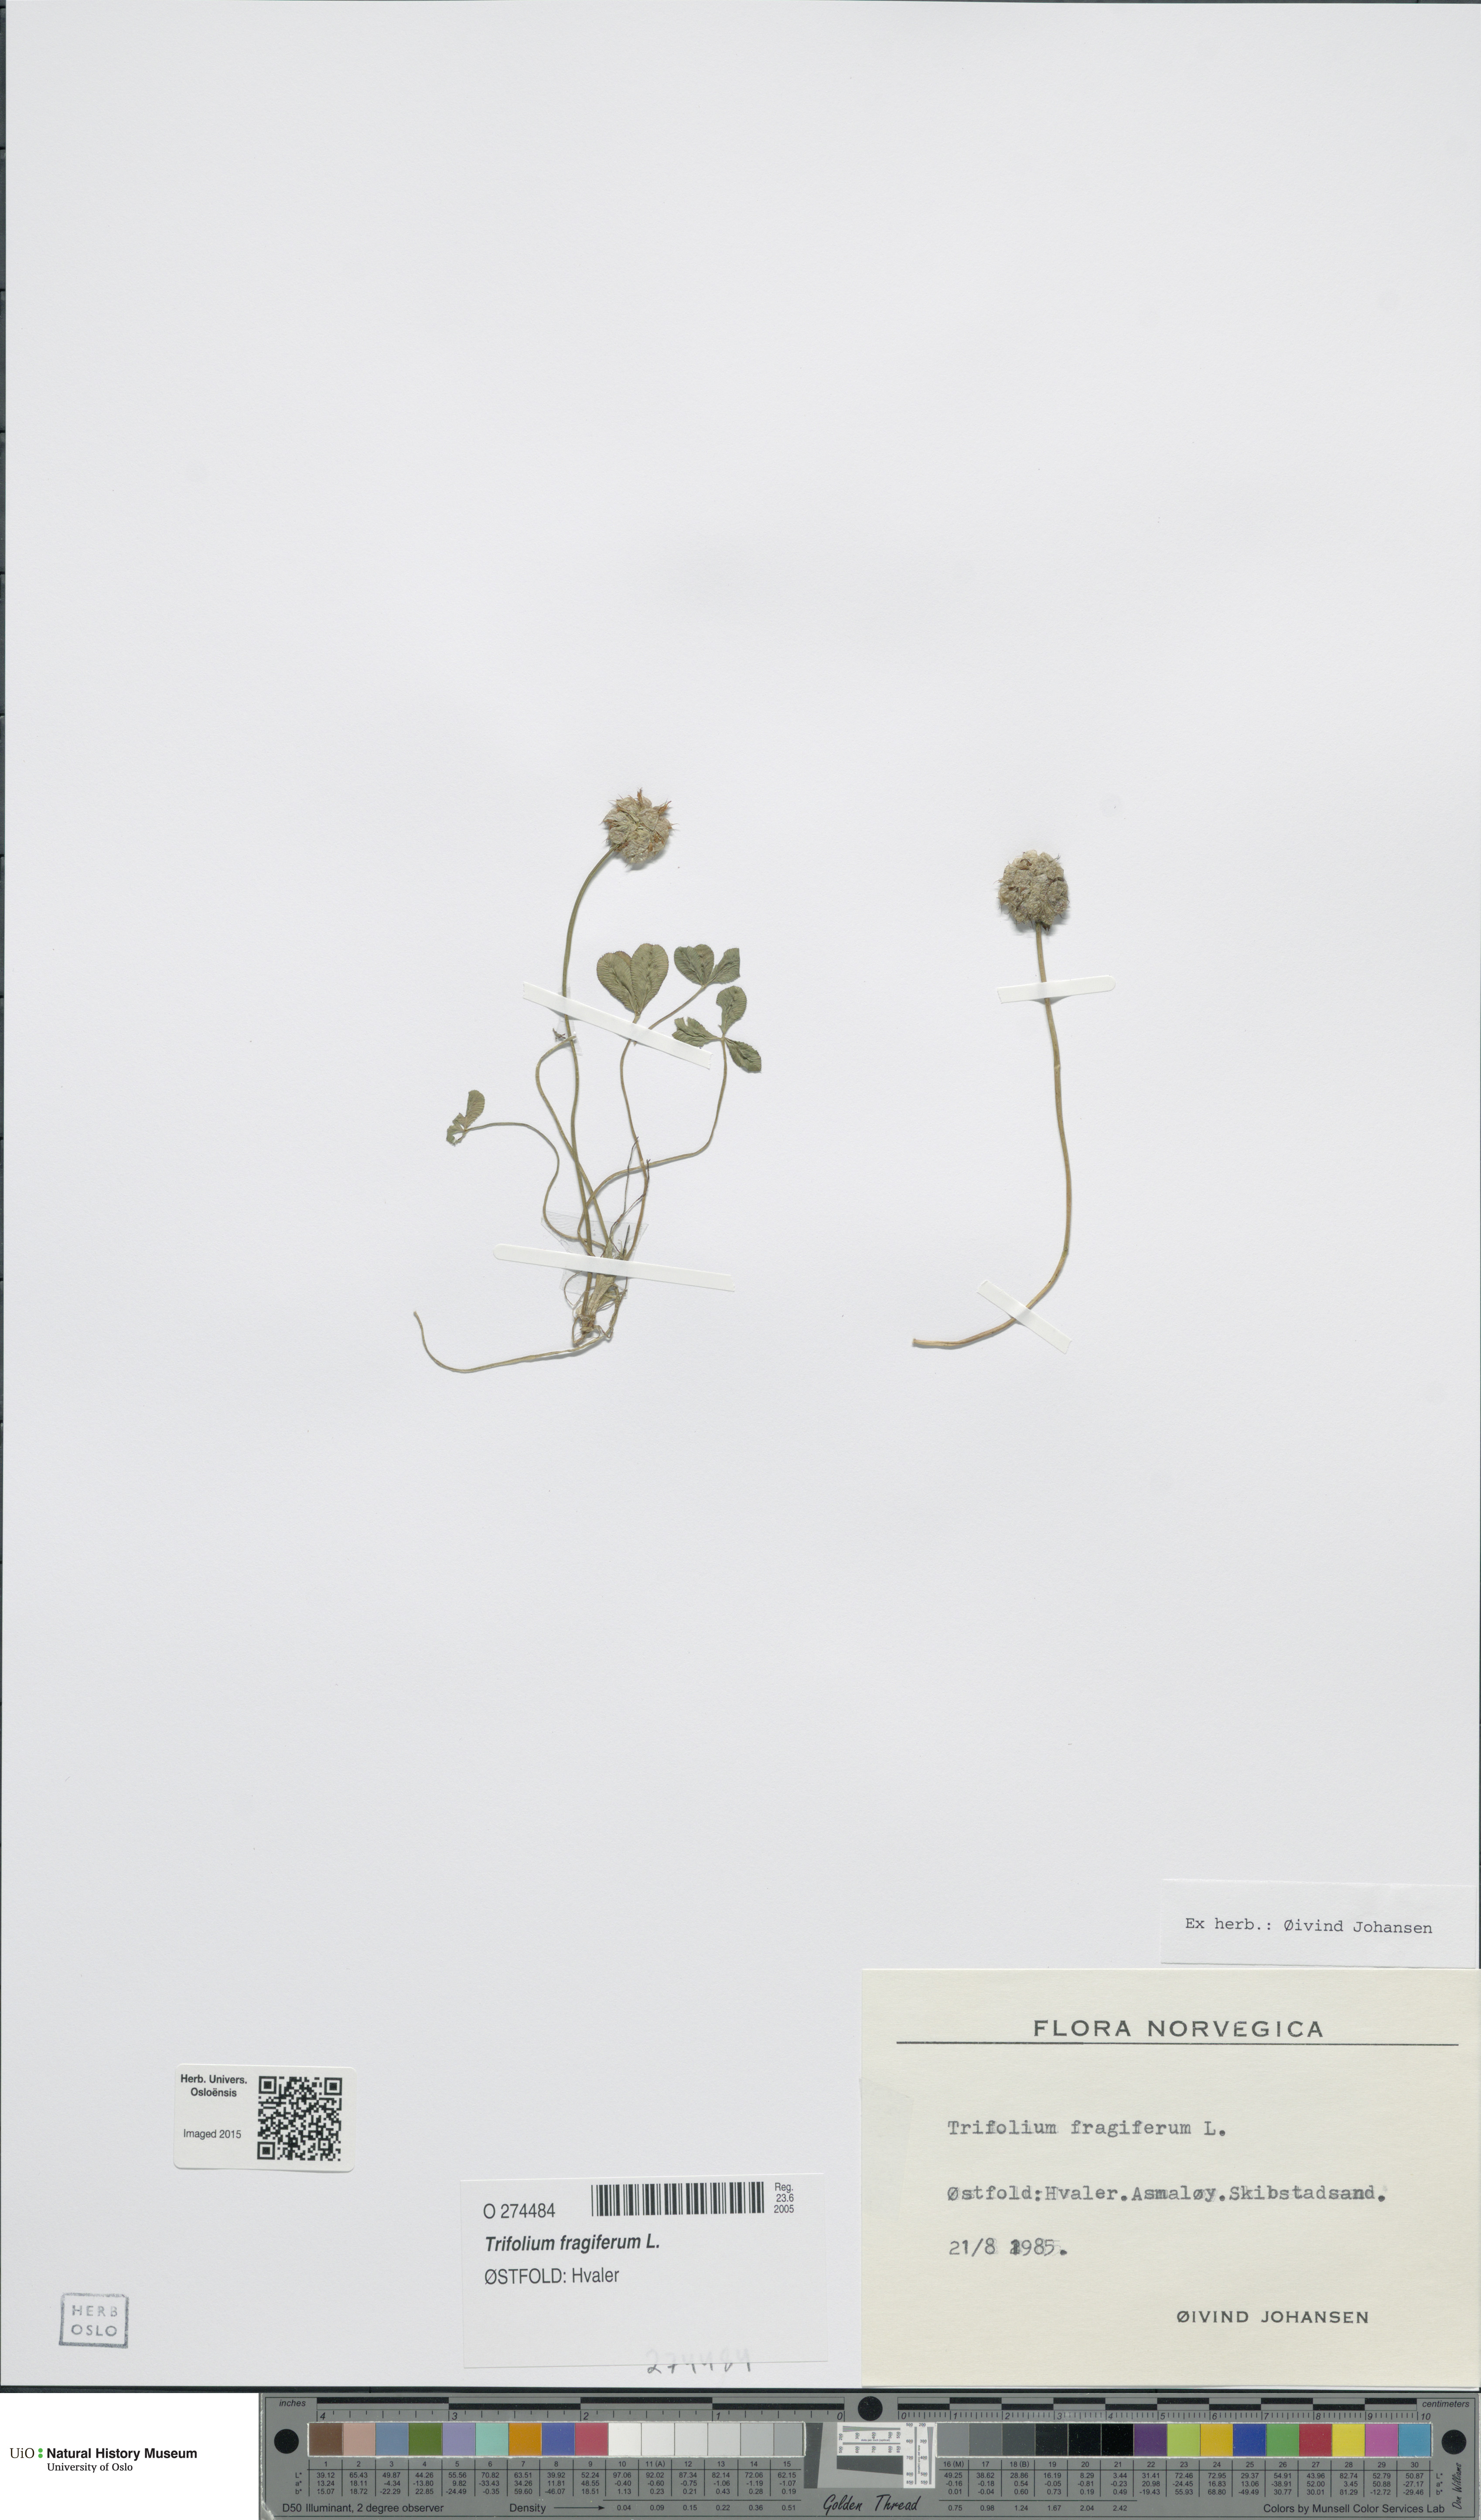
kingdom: Plantae
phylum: Tracheophyta
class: Magnoliopsida
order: Fabales
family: Fabaceae
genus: Trifolium
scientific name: Trifolium fragiferum
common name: Strawberry clover
